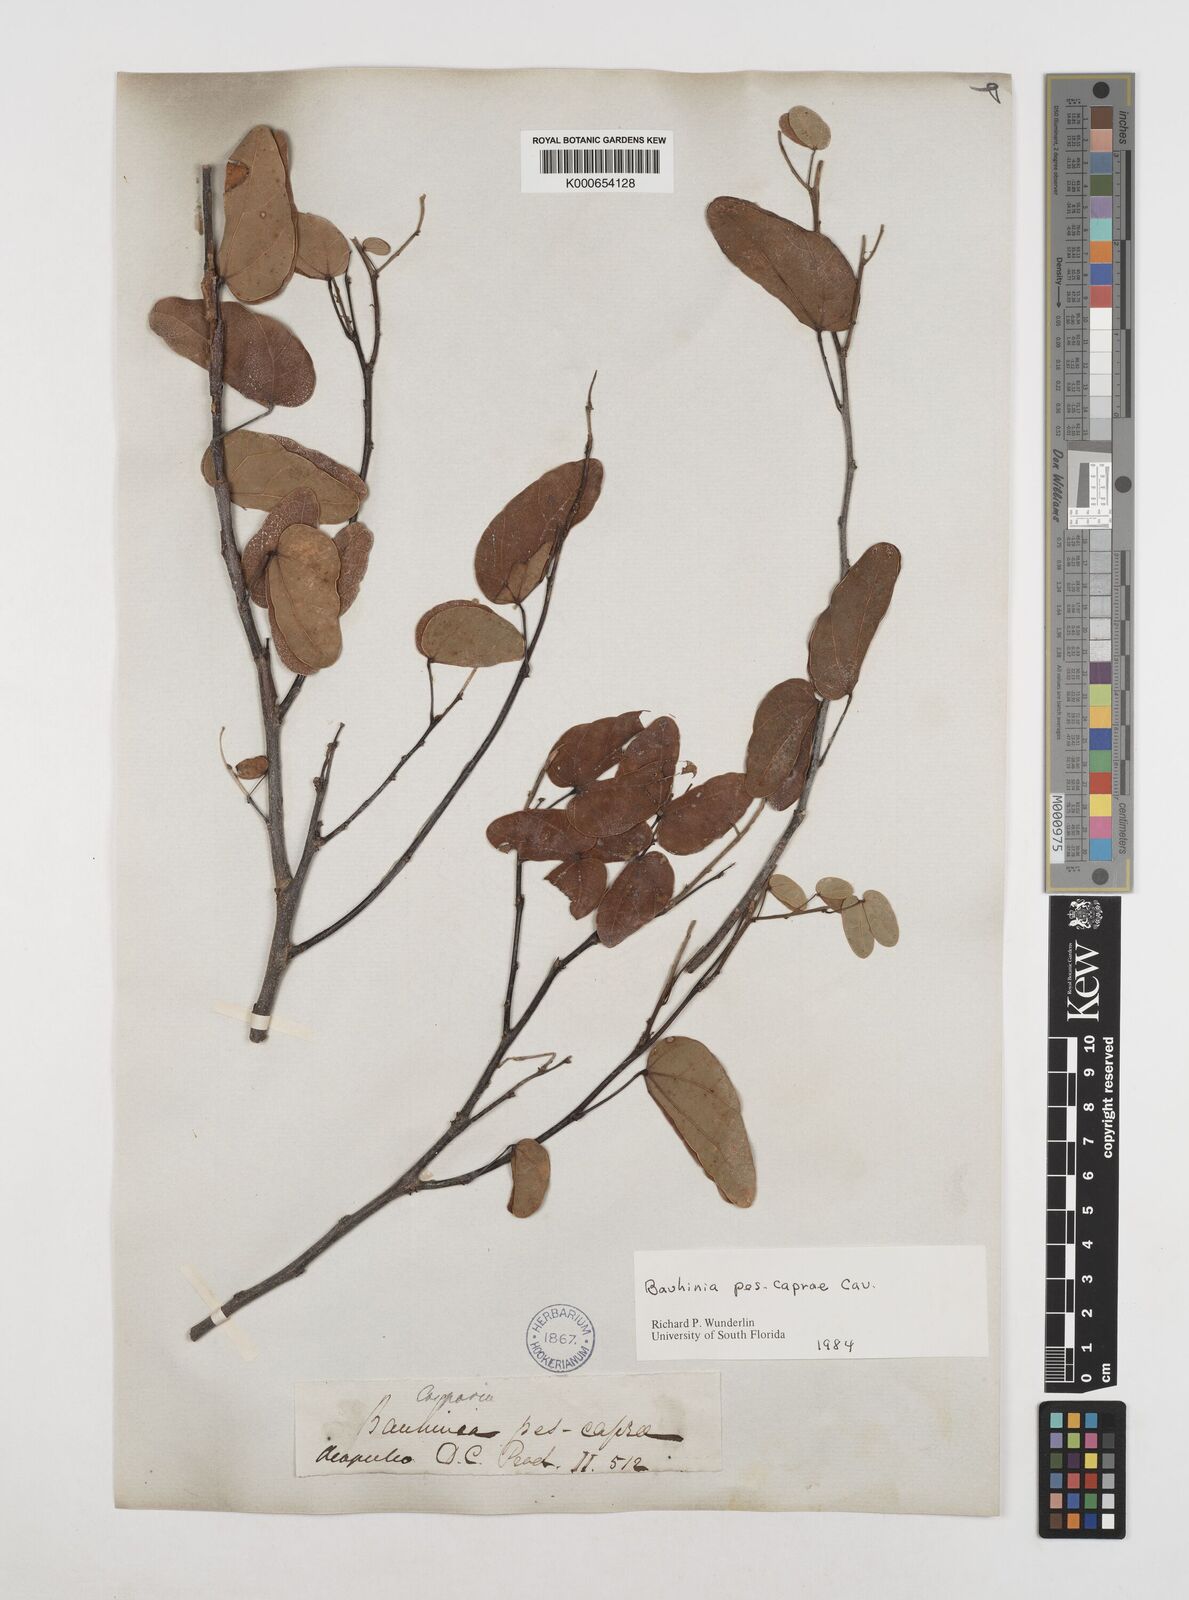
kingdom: Plantae
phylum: Tracheophyta
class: Magnoliopsida
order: Fabales
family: Fabaceae
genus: Bauhinia
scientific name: Bauhinia pes-caprae
